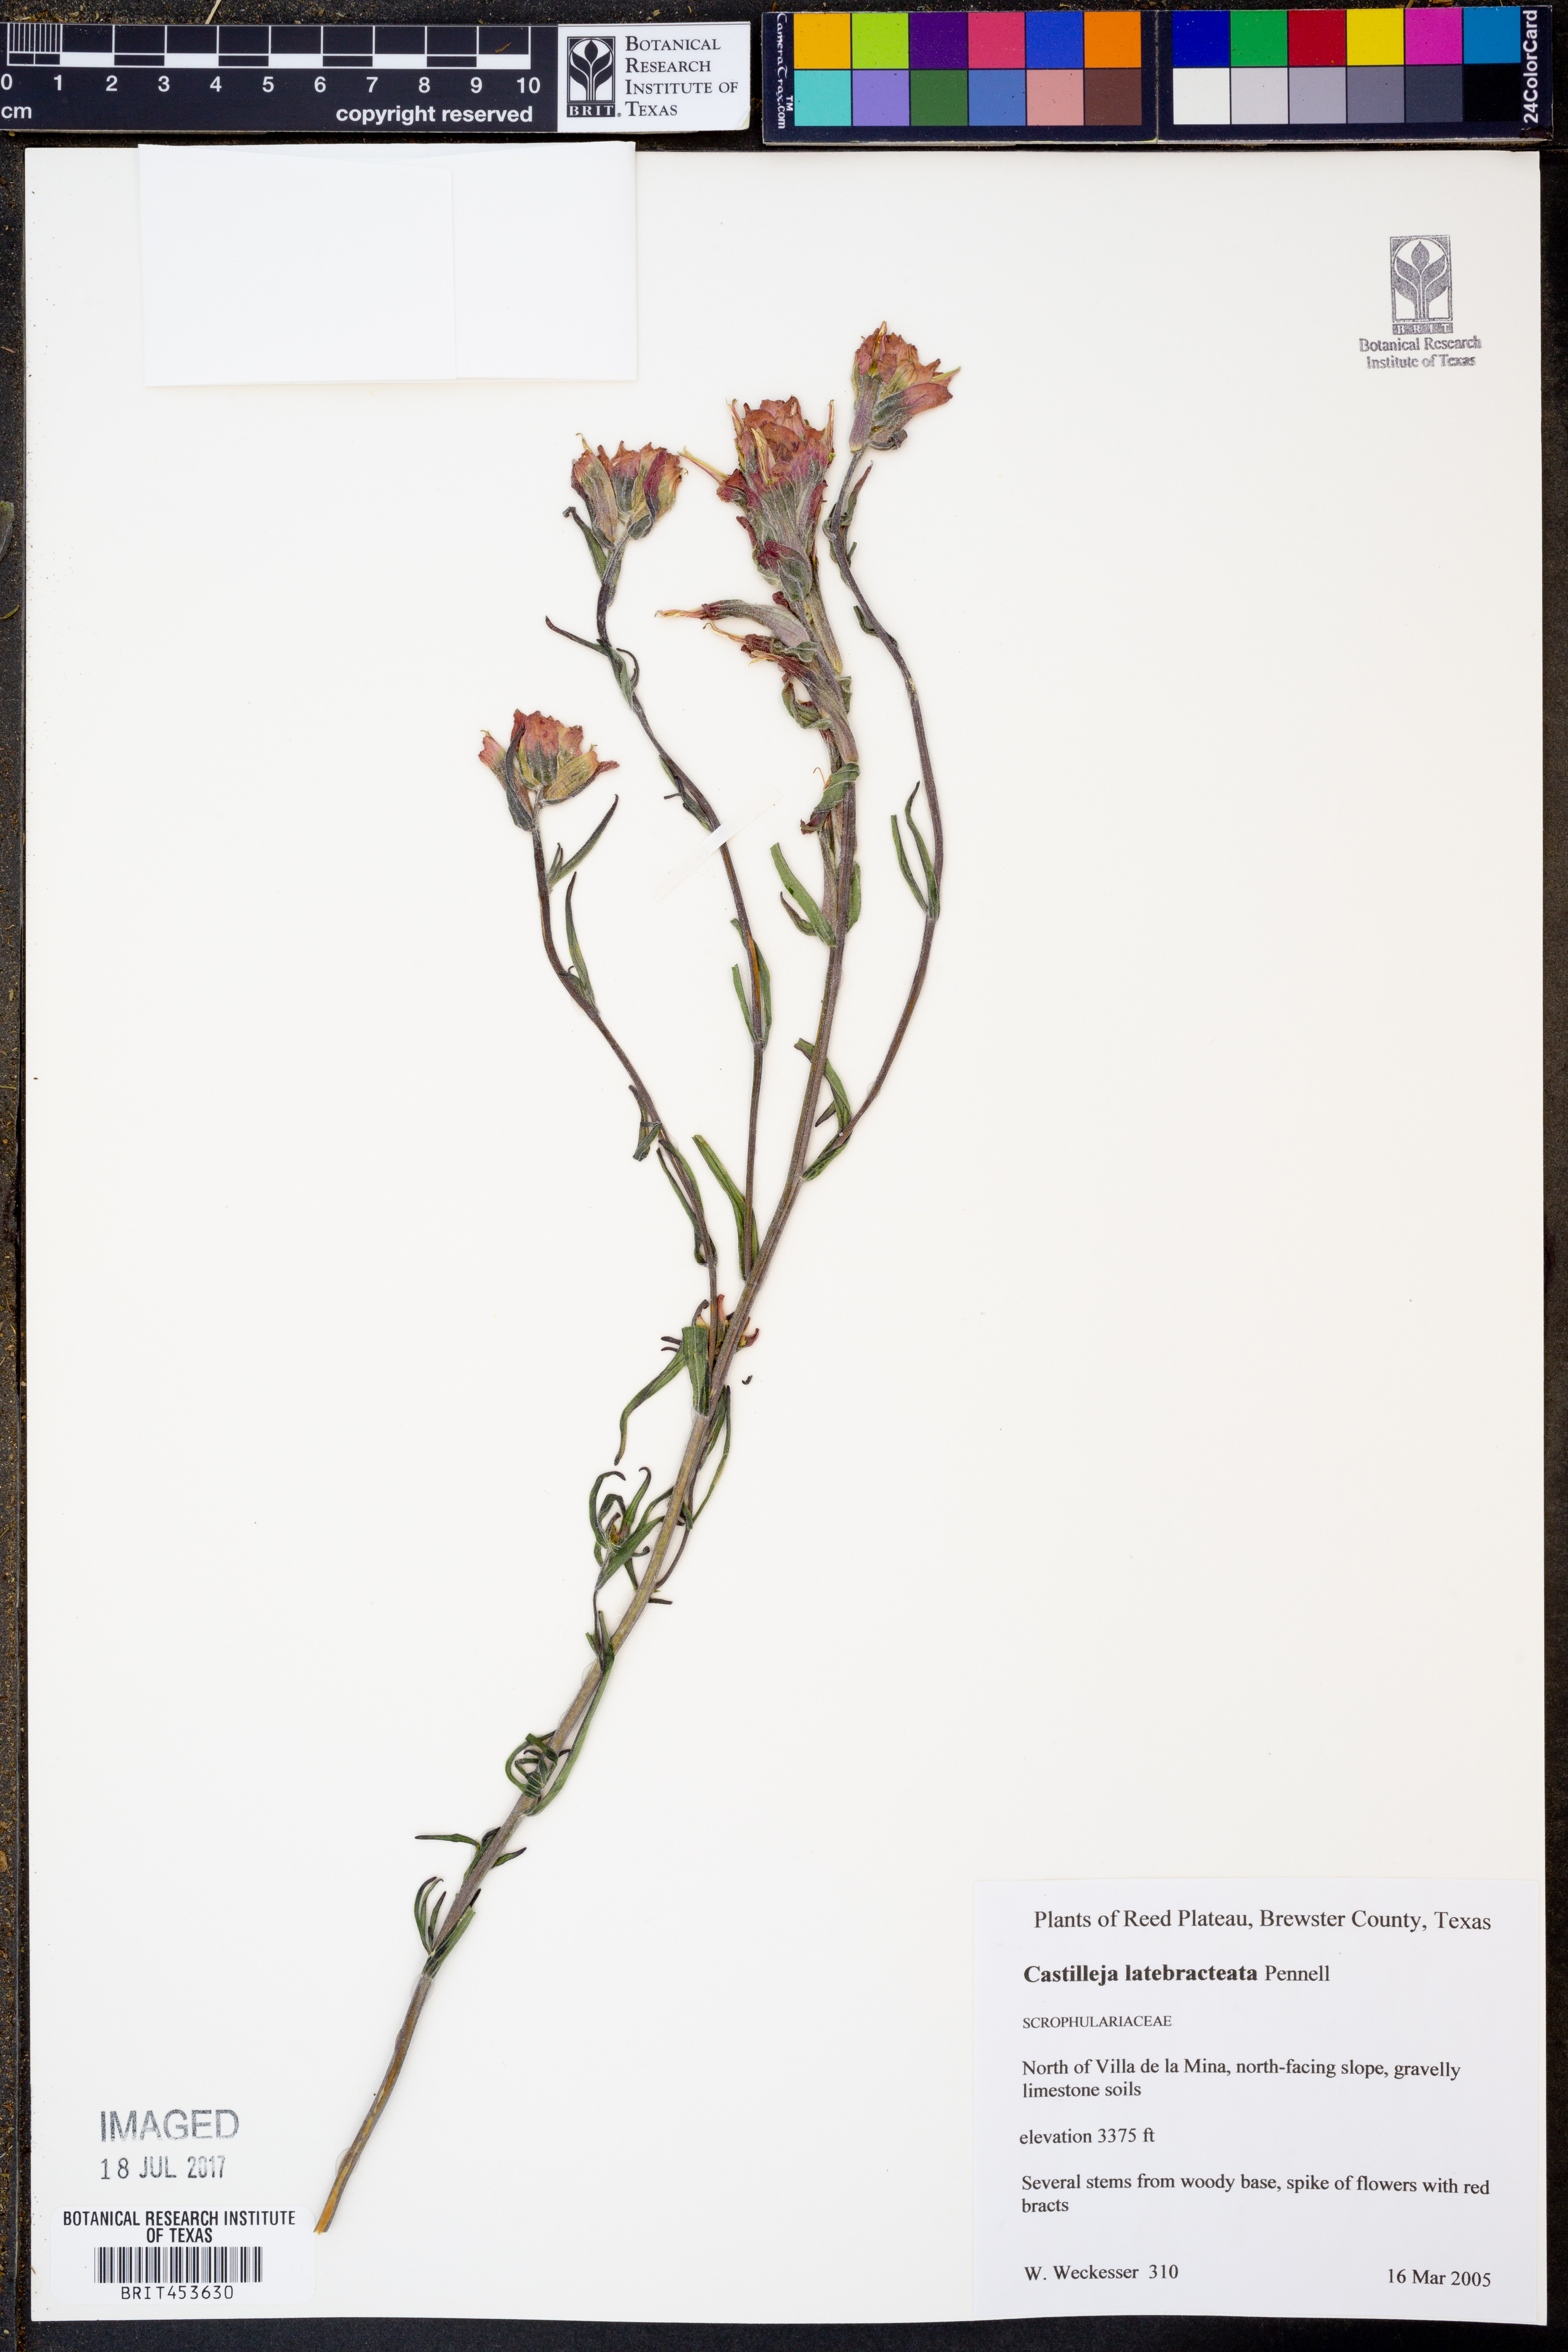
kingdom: Plantae
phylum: Tracheophyta
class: Magnoliopsida
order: Lamiales
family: Orobanchaceae
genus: Castilleja
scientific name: Castilleja rigida
